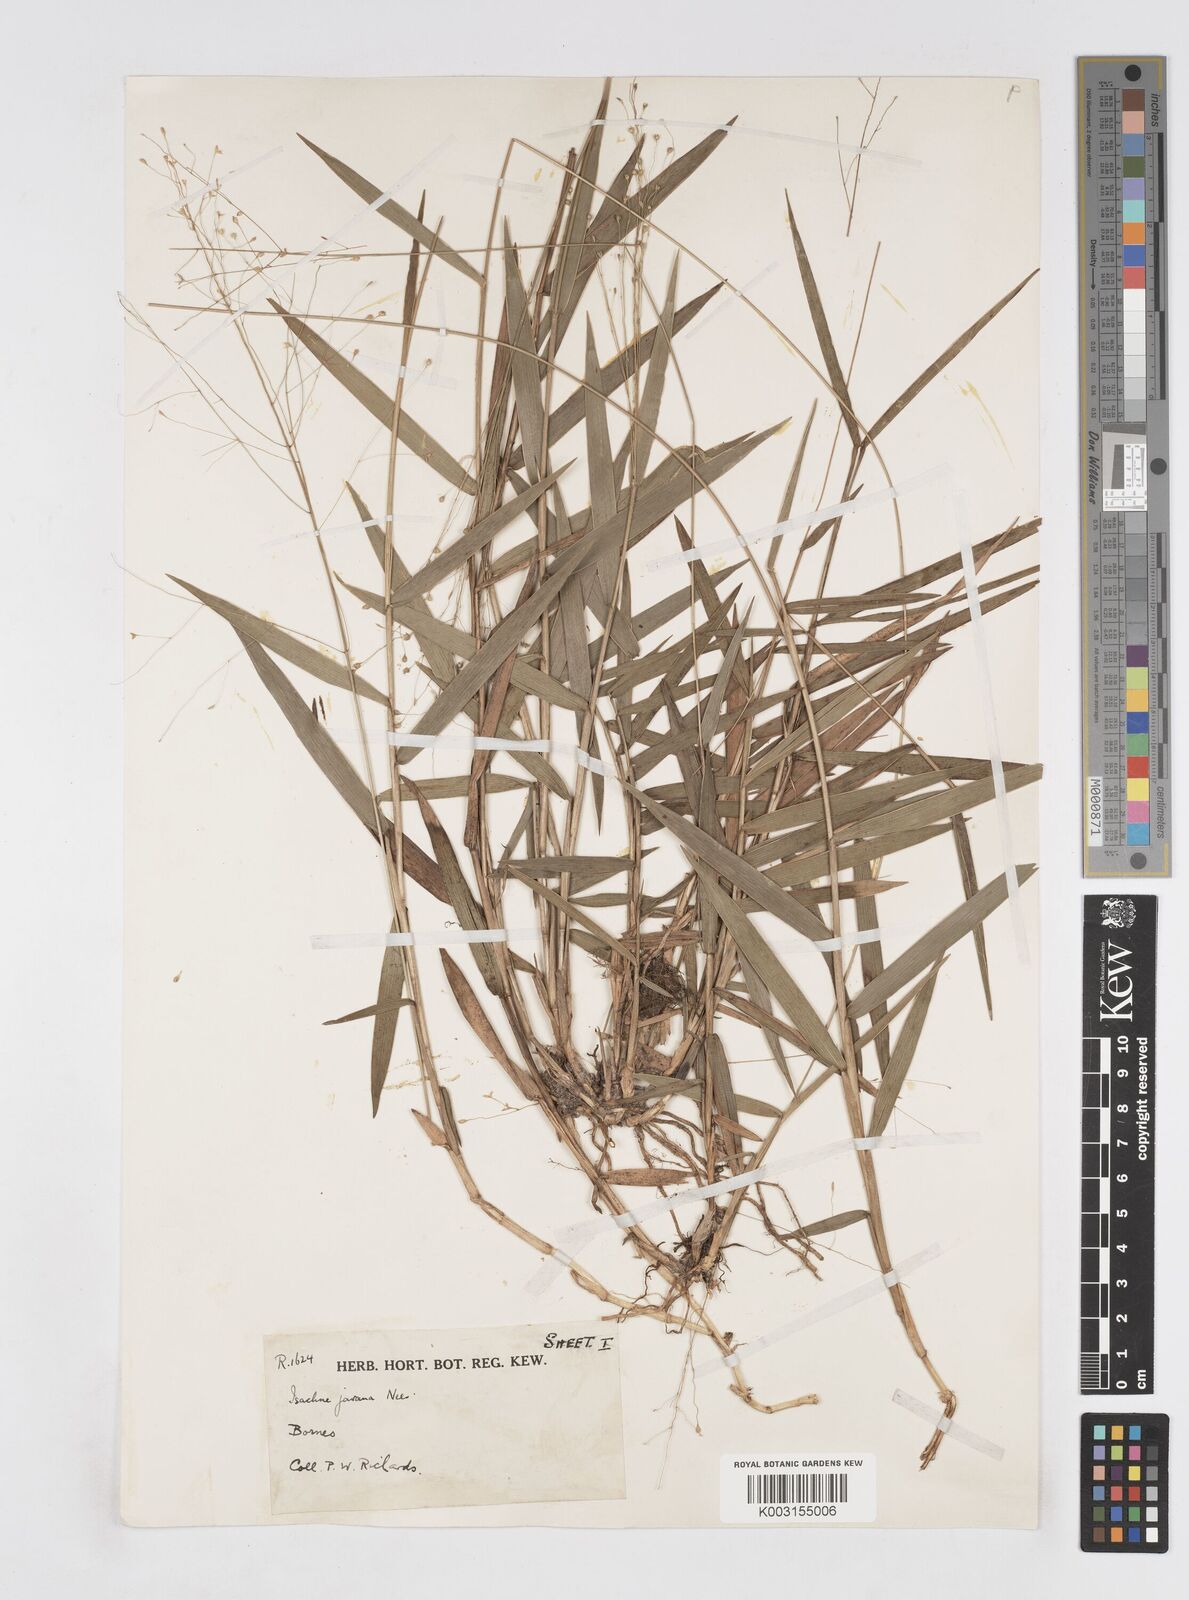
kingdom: Plantae
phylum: Tracheophyta
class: Liliopsida
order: Poales
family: Poaceae
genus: Isachne
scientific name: Isachne kinabaluensis
